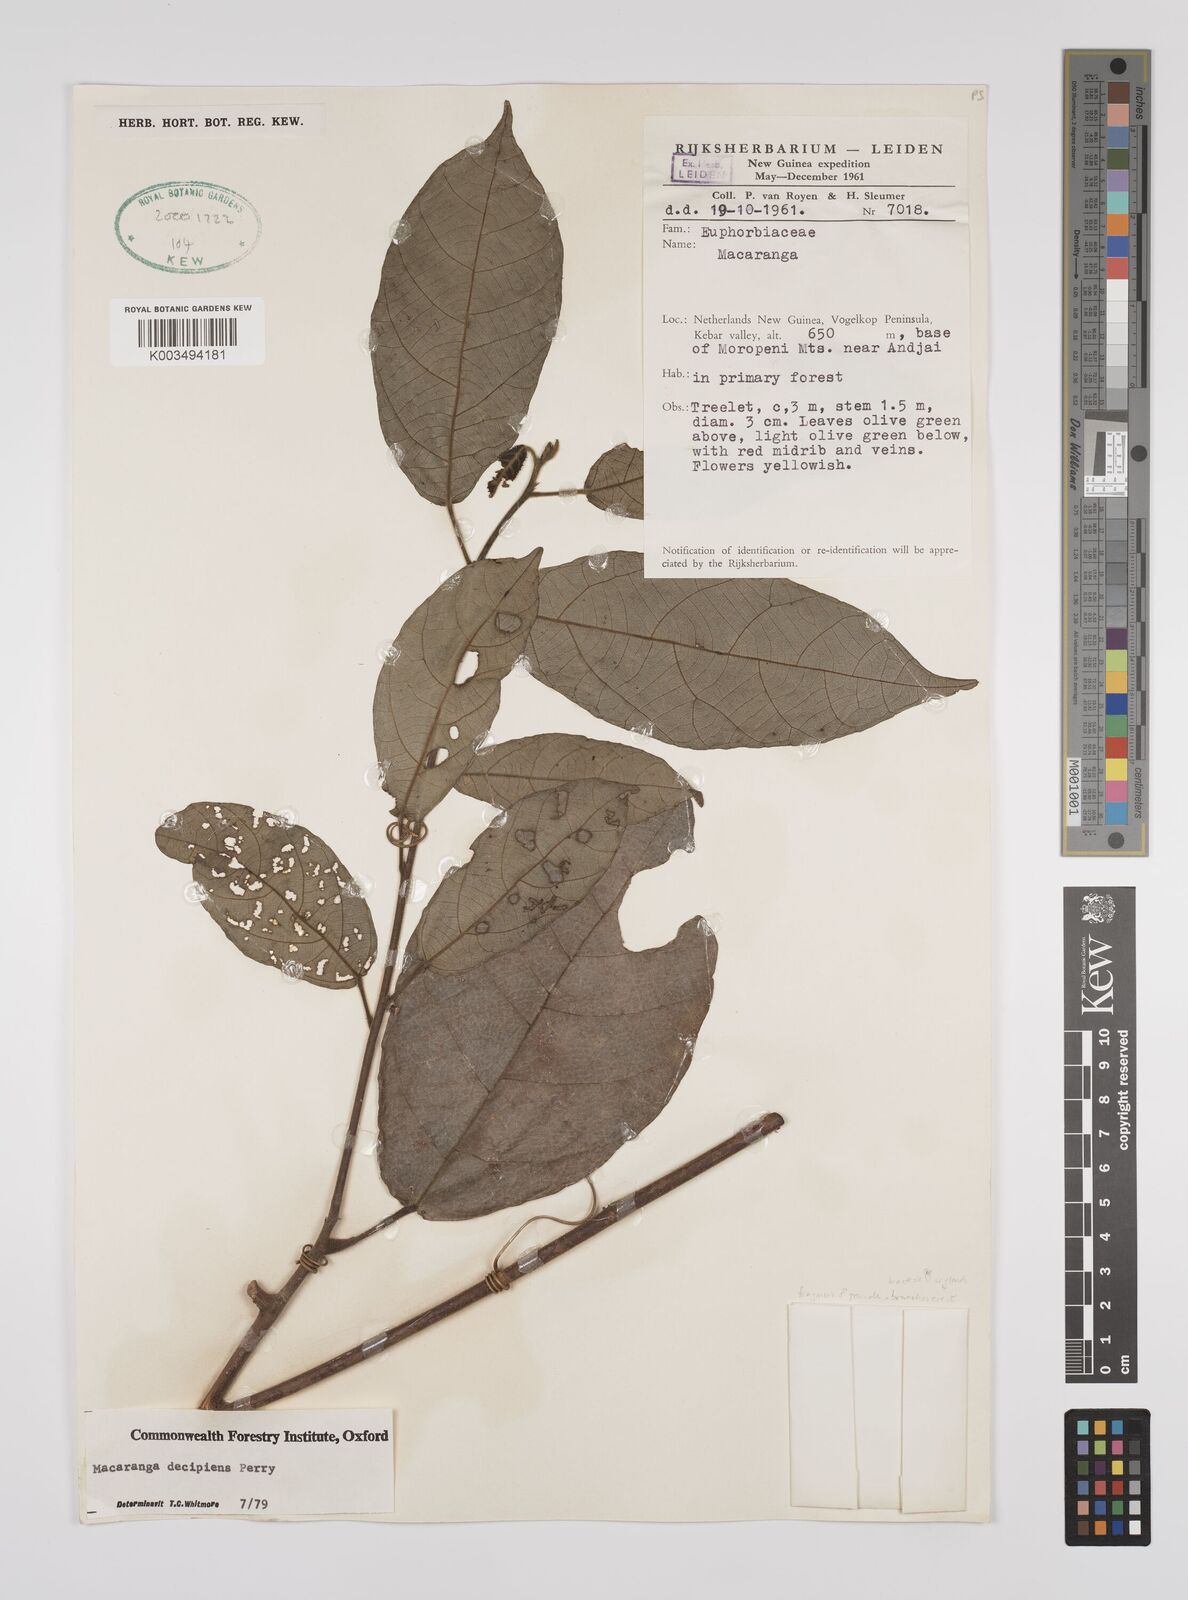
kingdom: Plantae
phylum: Tracheophyta
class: Magnoliopsida
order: Malpighiales
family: Euphorbiaceae
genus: Macaranga
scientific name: Macaranga decipiens
